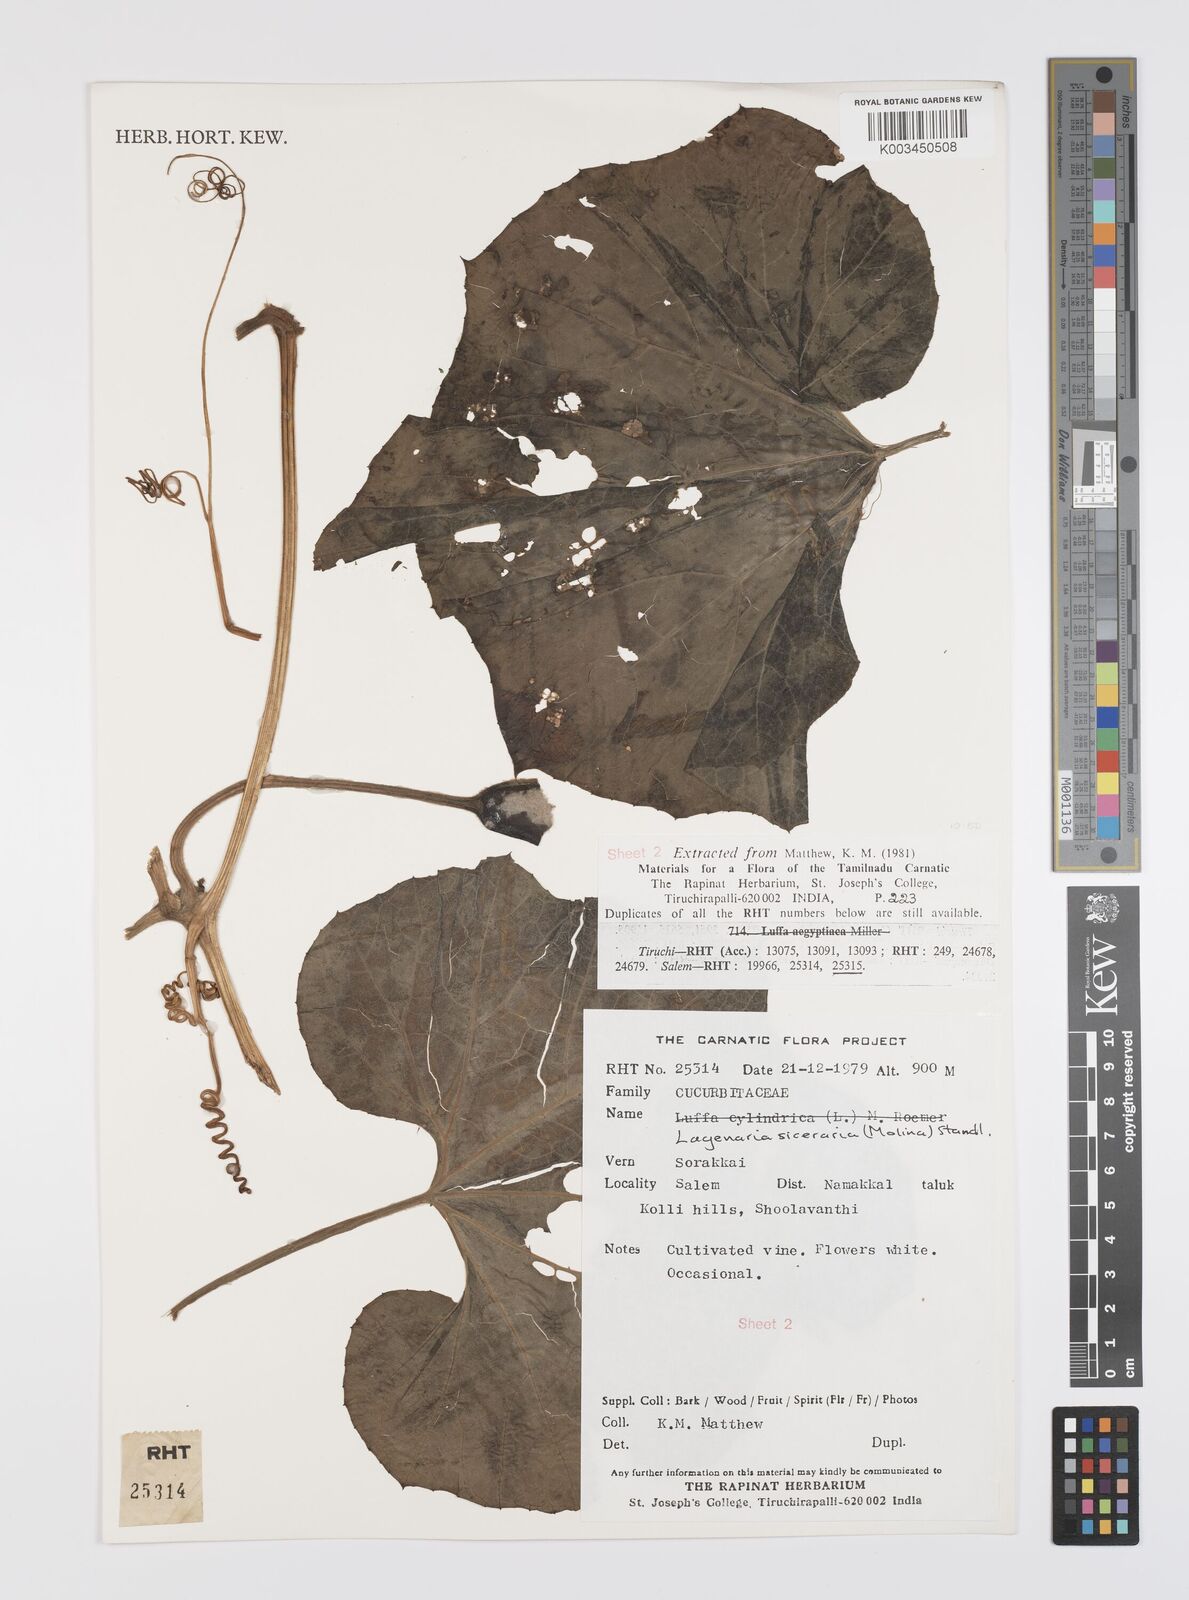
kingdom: Plantae
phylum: Tracheophyta
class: Magnoliopsida
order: Cucurbitales
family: Cucurbitaceae
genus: Lagenaria
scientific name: Lagenaria siceraria
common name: Bottle gourd
